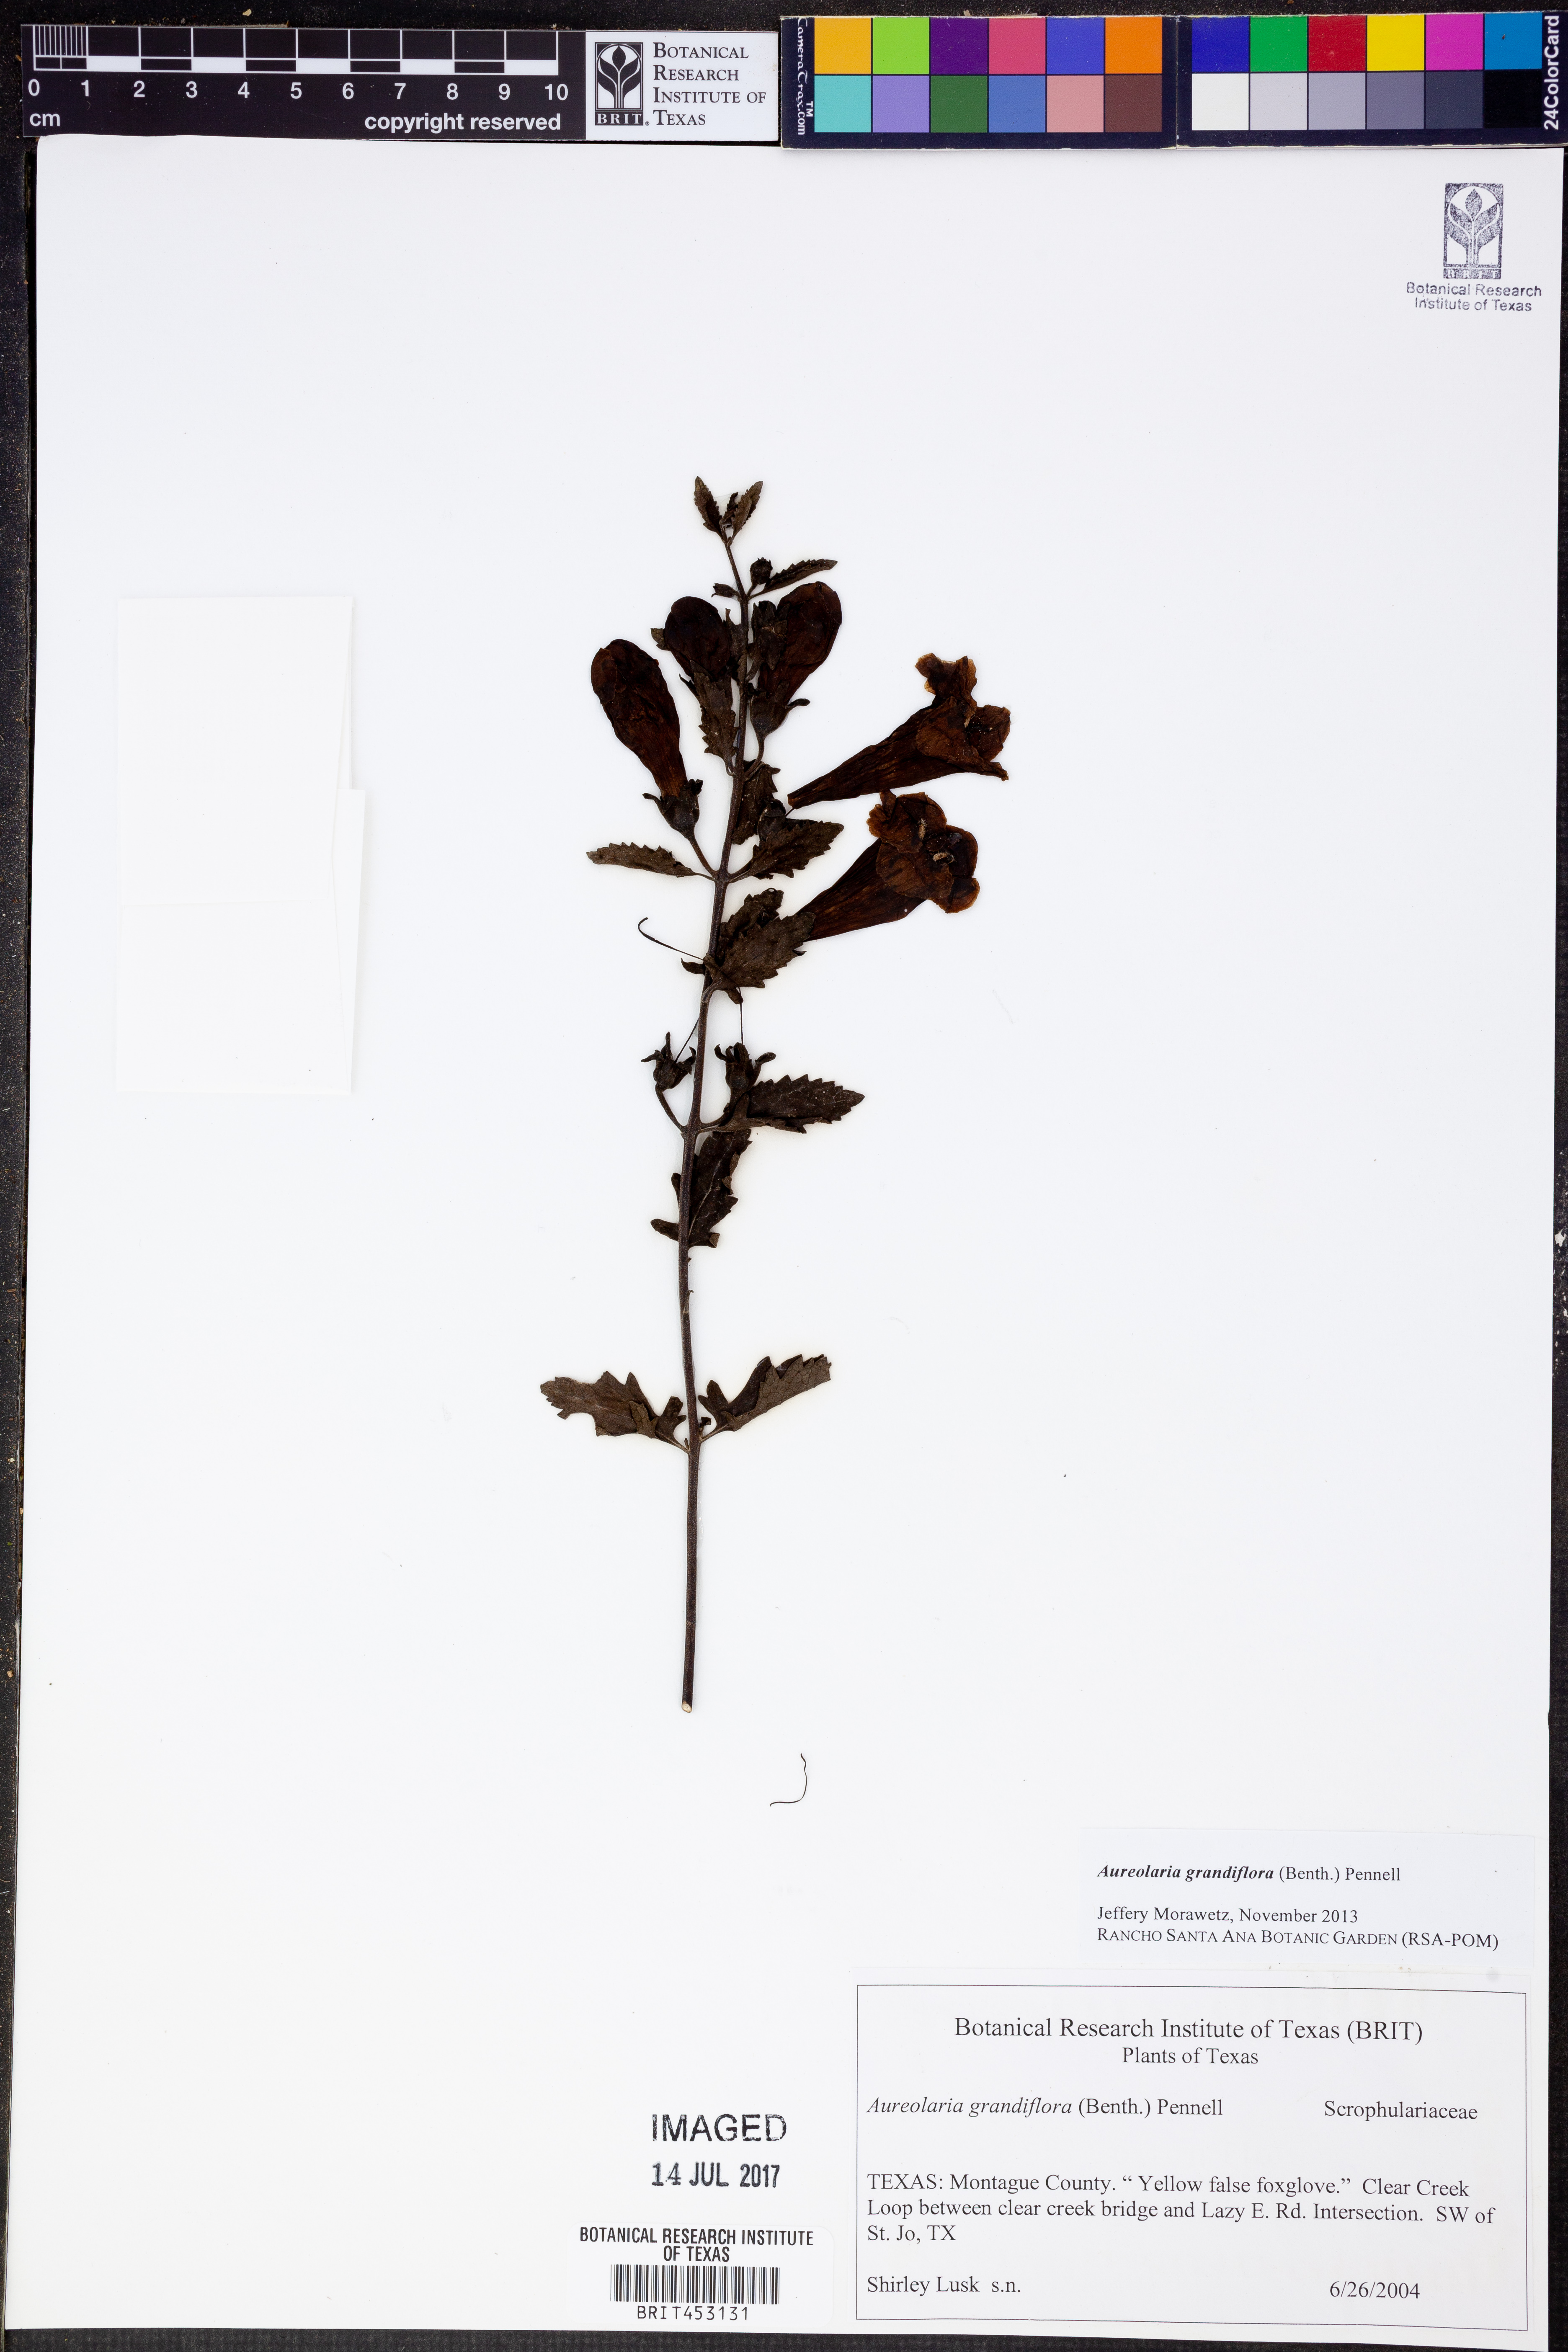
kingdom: Plantae
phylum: Tracheophyta
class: Magnoliopsida
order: Lamiales
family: Orobanchaceae
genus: Aureolaria
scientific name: Aureolaria grandiflora
